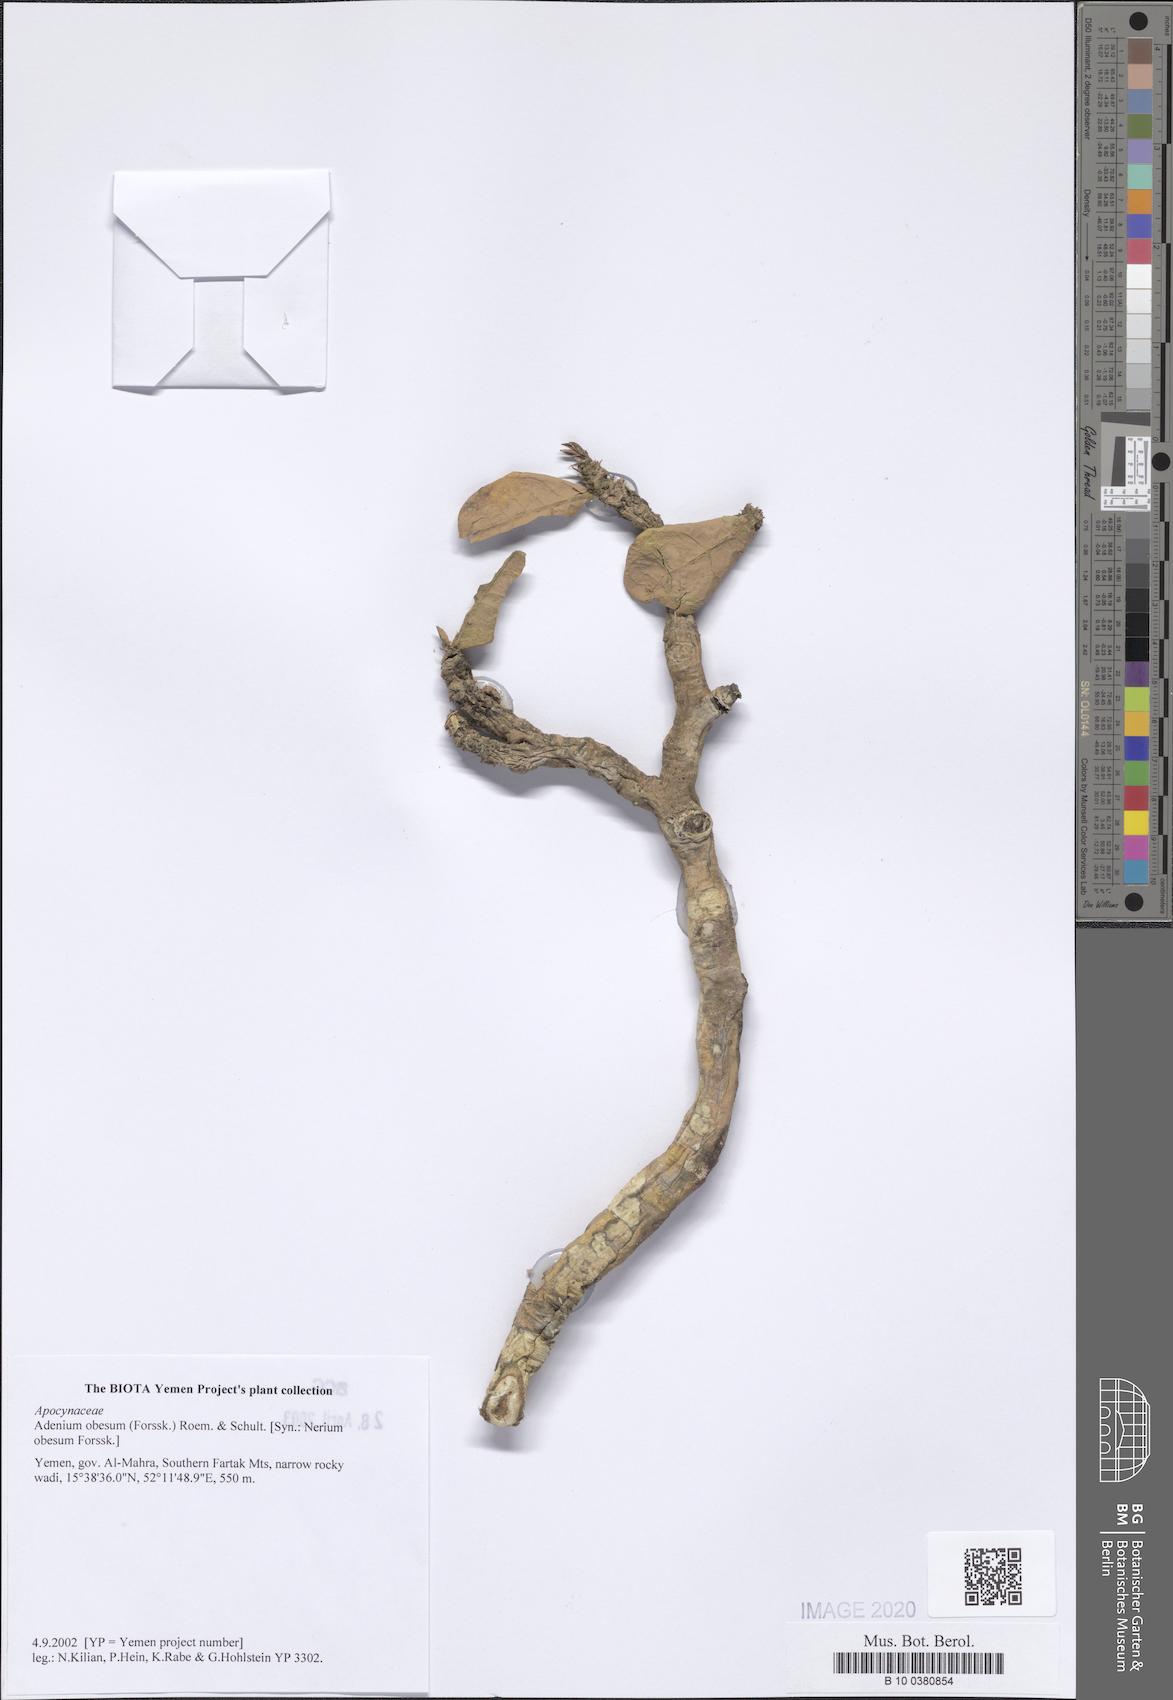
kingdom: Plantae
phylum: Tracheophyta
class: Magnoliopsida
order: Gentianales
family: Apocynaceae
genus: Adenium
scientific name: Adenium obesum
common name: Desert-rose
